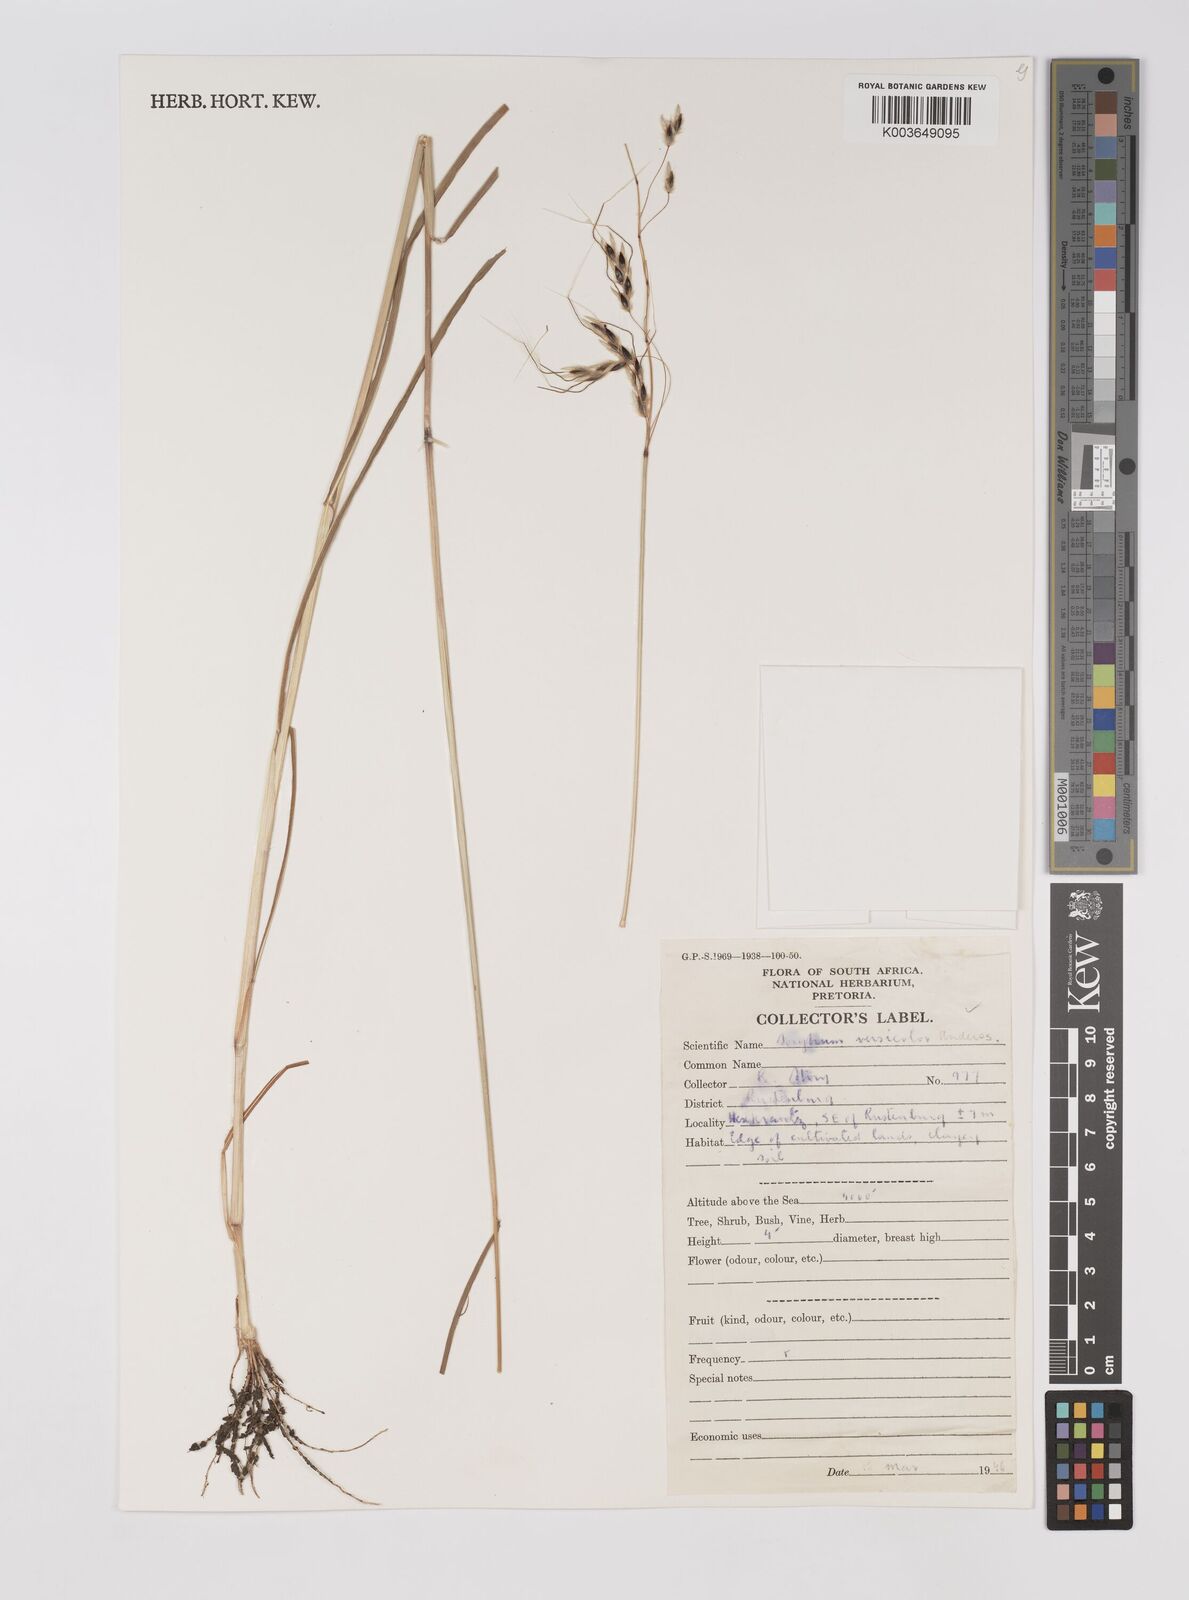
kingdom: Plantae
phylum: Tracheophyta
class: Liliopsida
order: Poales
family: Poaceae
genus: Sarga
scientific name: Sarga versicolor
